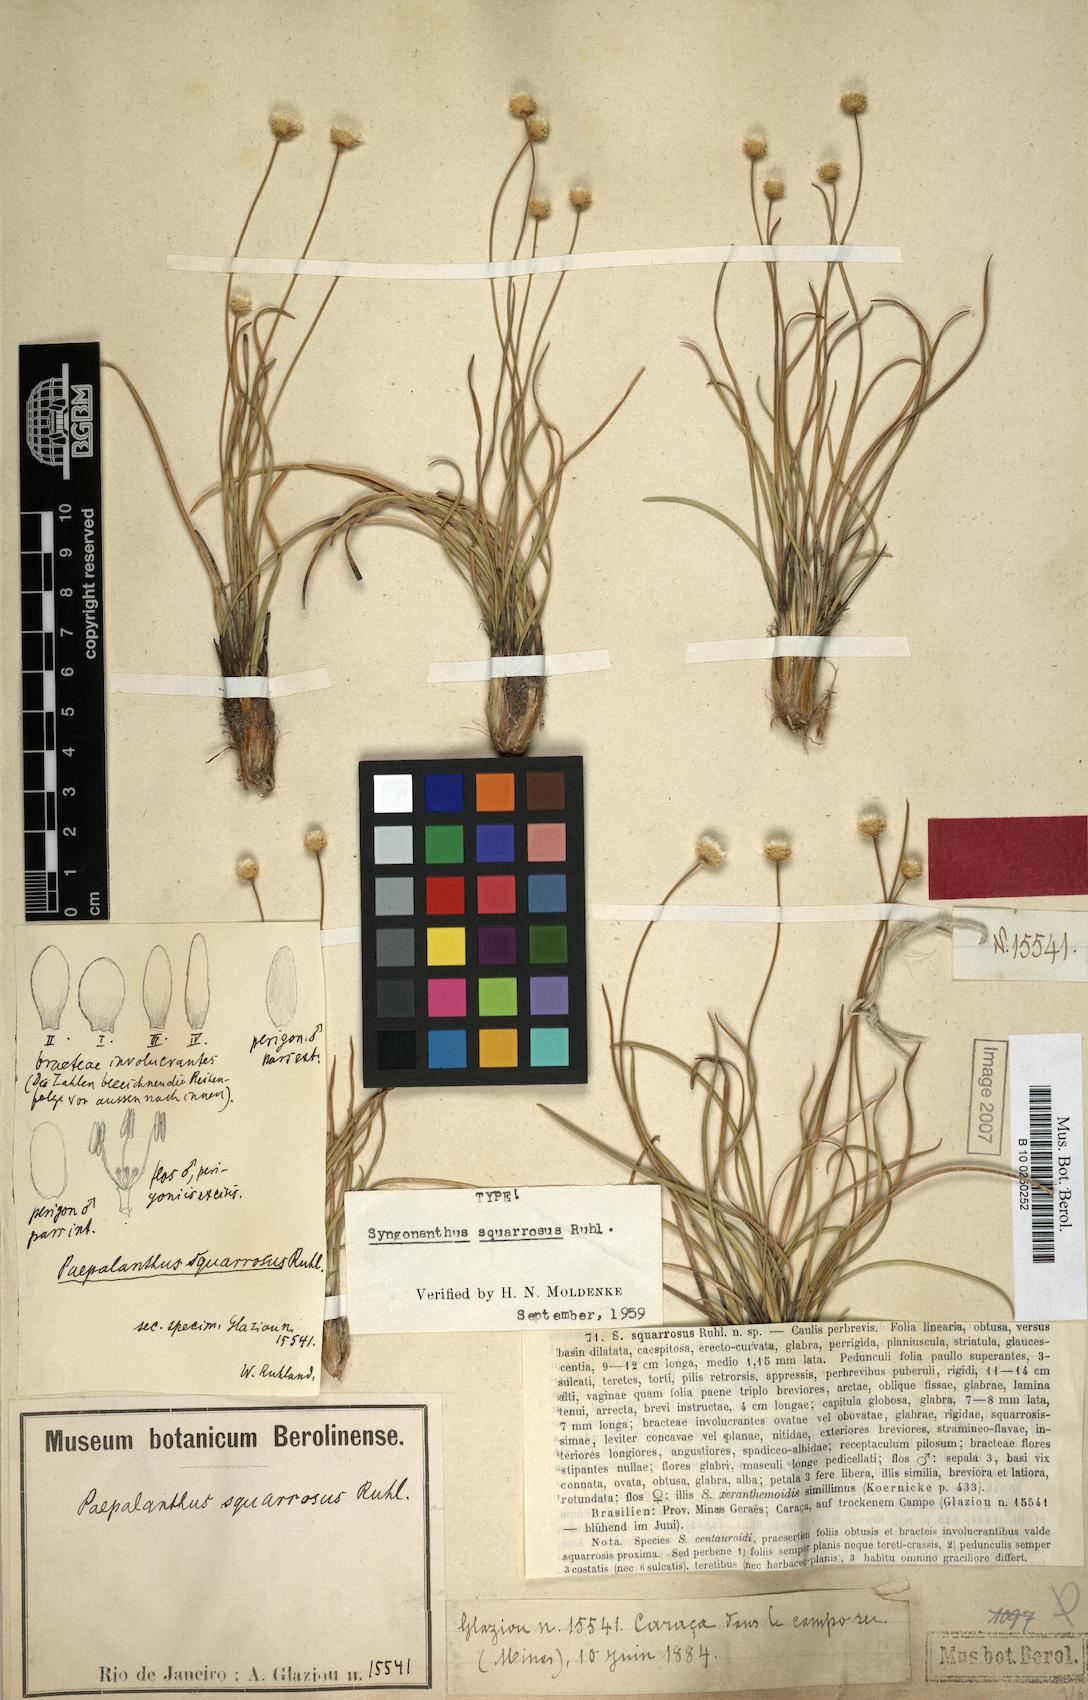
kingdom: Plantae
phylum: Tracheophyta
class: Liliopsida
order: Poales
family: Eriocaulaceae
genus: Comanthera
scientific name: Comanthera centauroides
